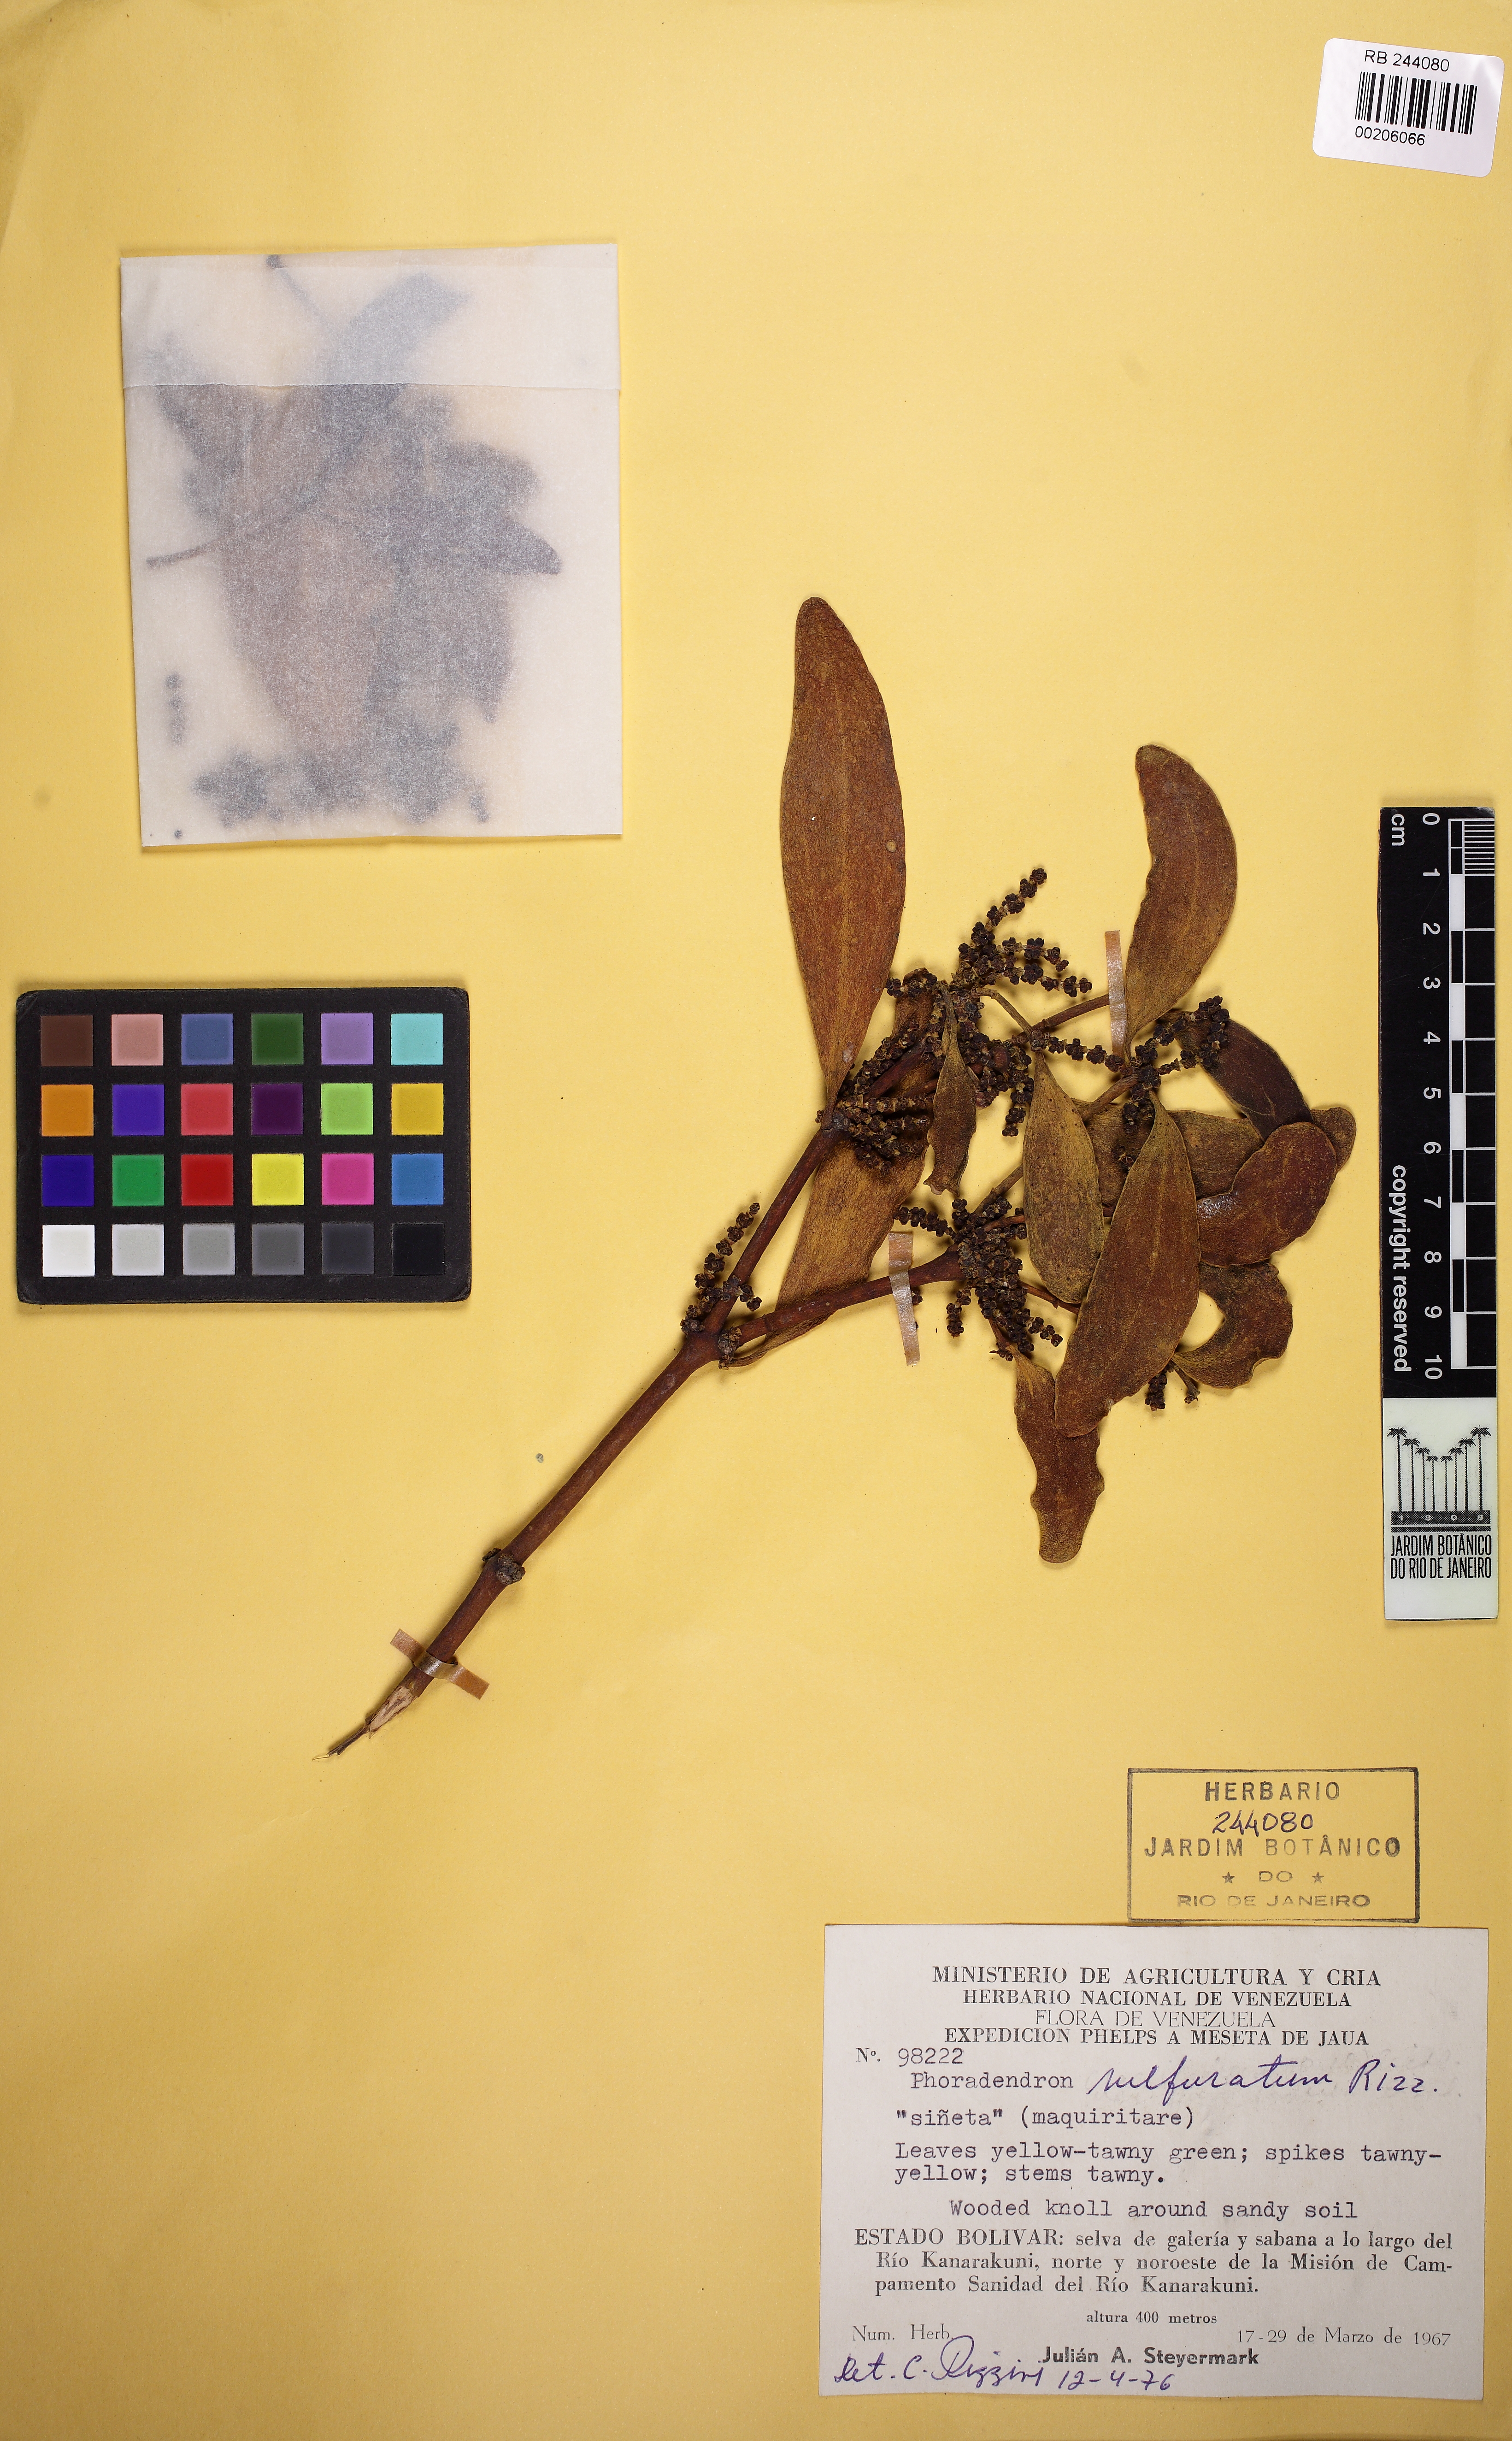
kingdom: Plantae
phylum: Tracheophyta
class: Magnoliopsida
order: Santalales
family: Viscaceae
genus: Phoradendron
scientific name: Phoradendron mairaryense
